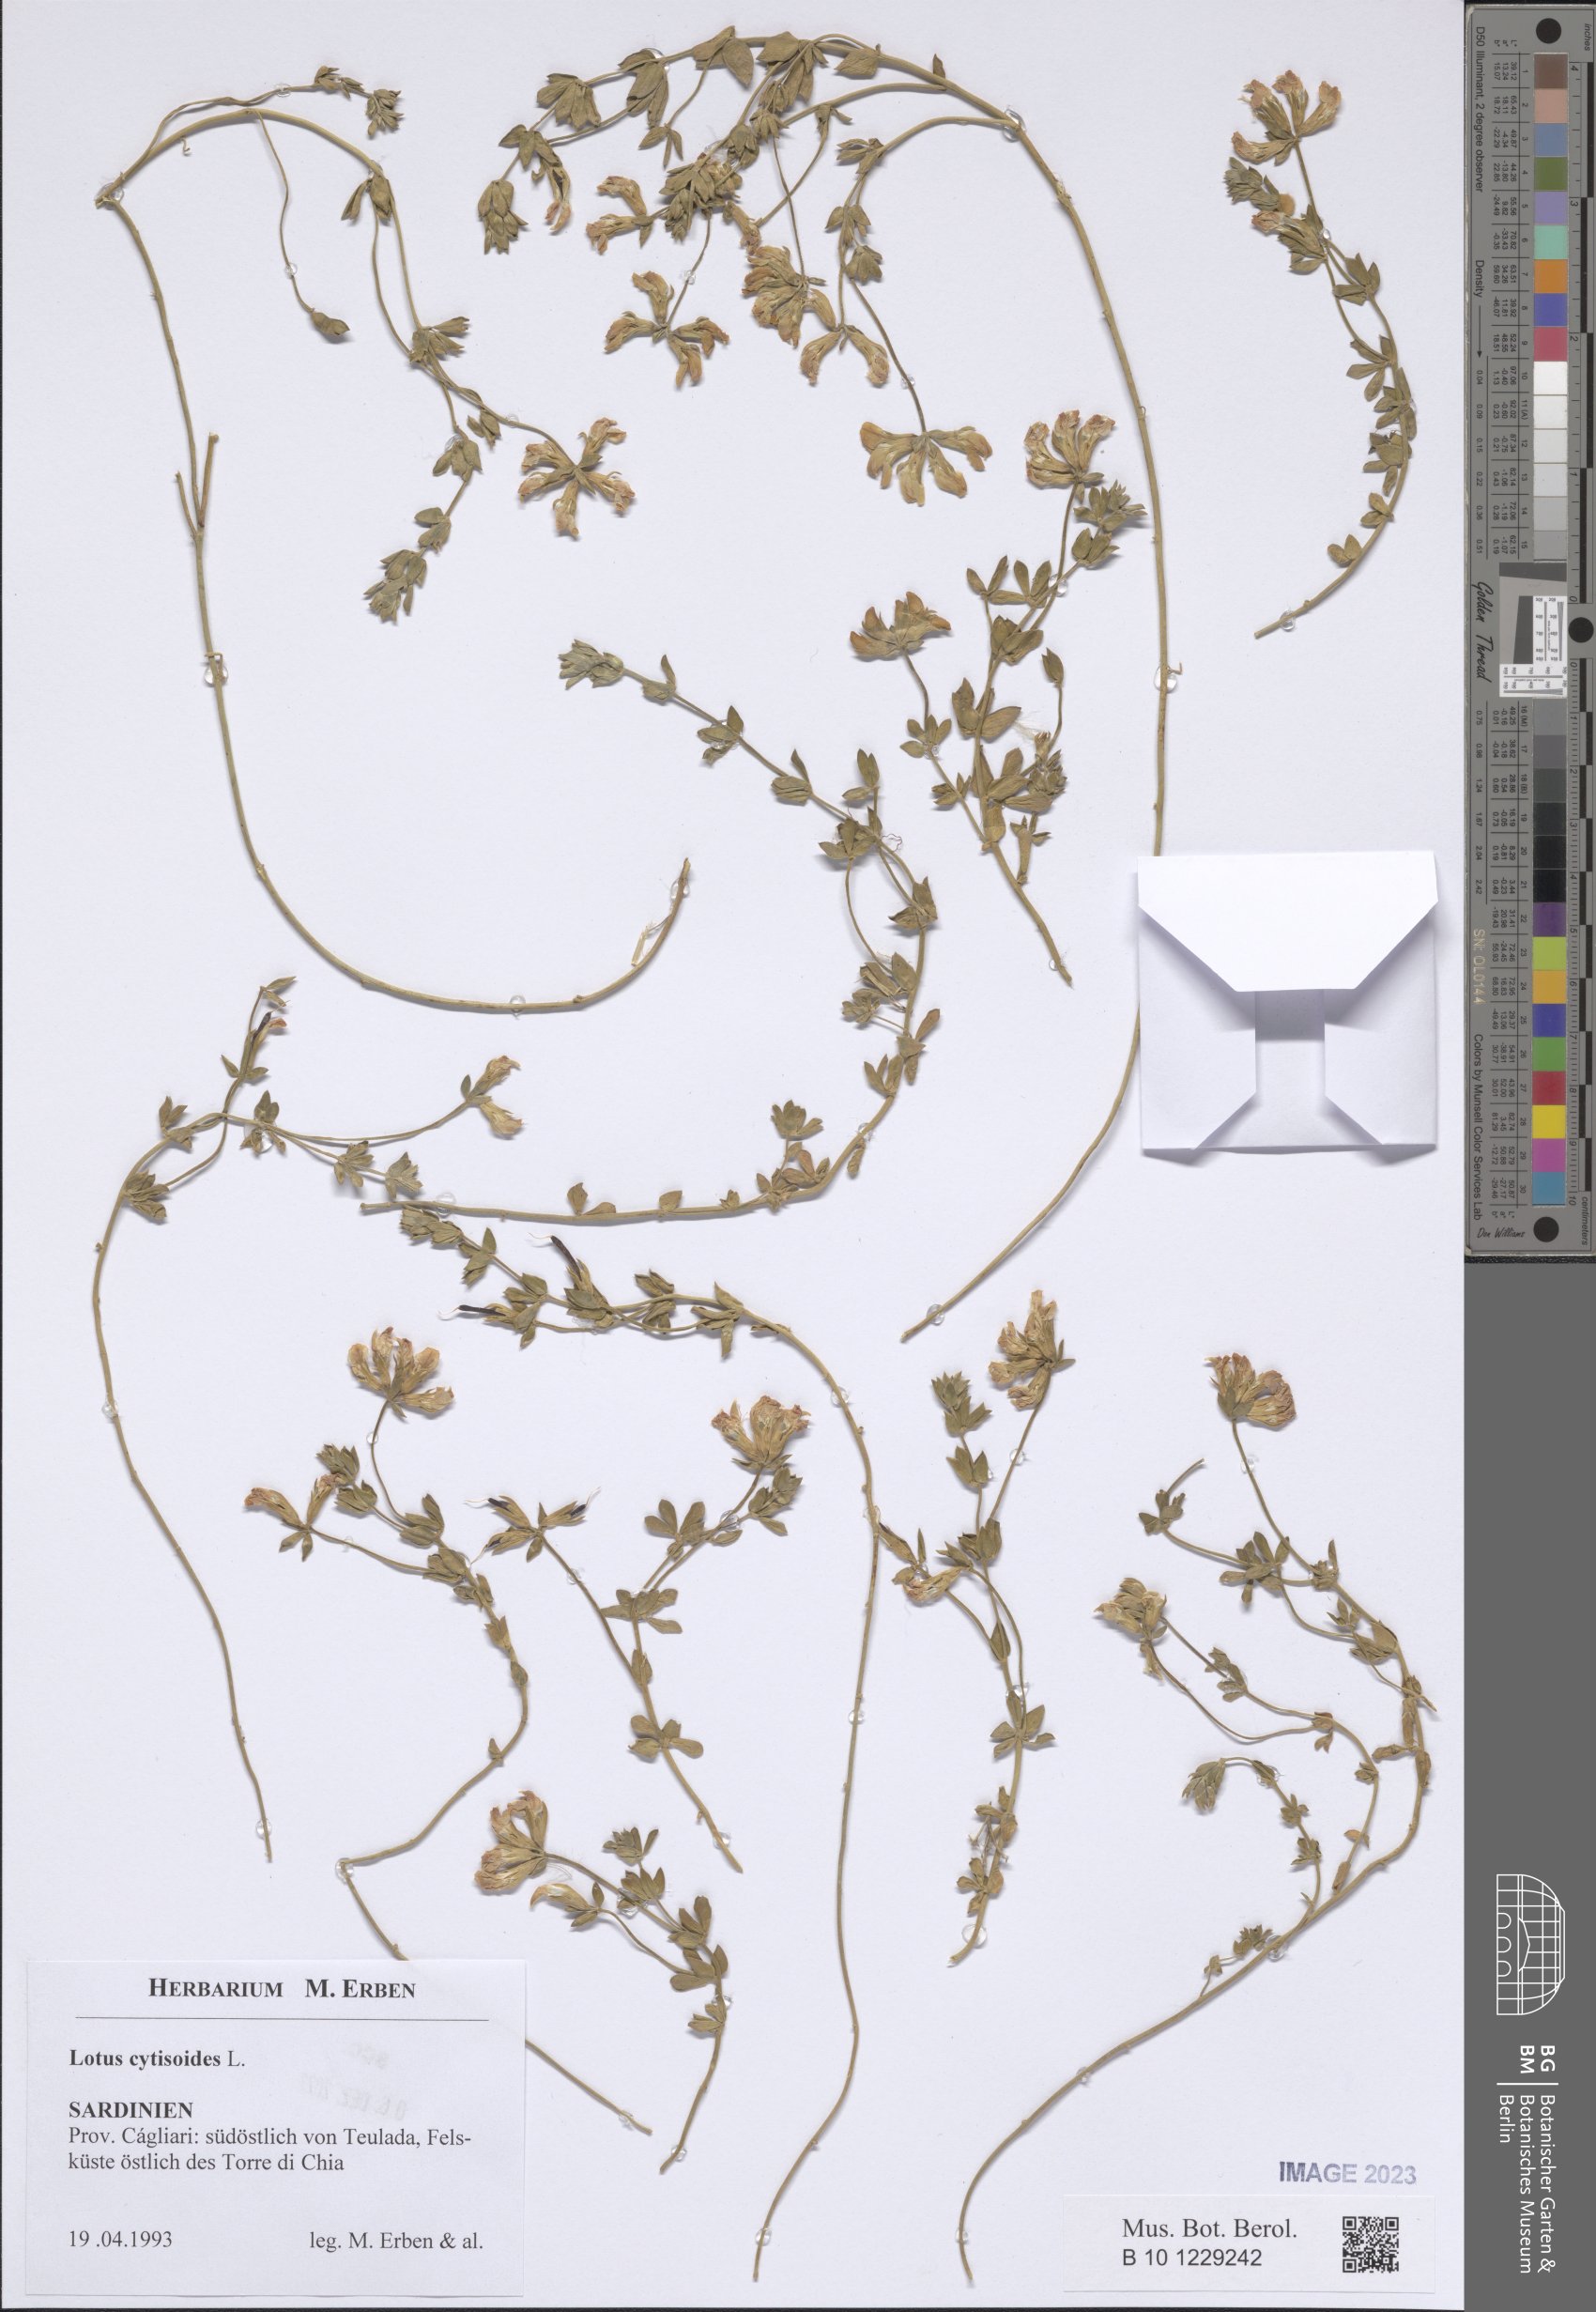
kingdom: Plantae
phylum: Tracheophyta
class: Magnoliopsida
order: Fabales
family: Fabaceae
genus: Lotus
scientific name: Lotus cytisoides
